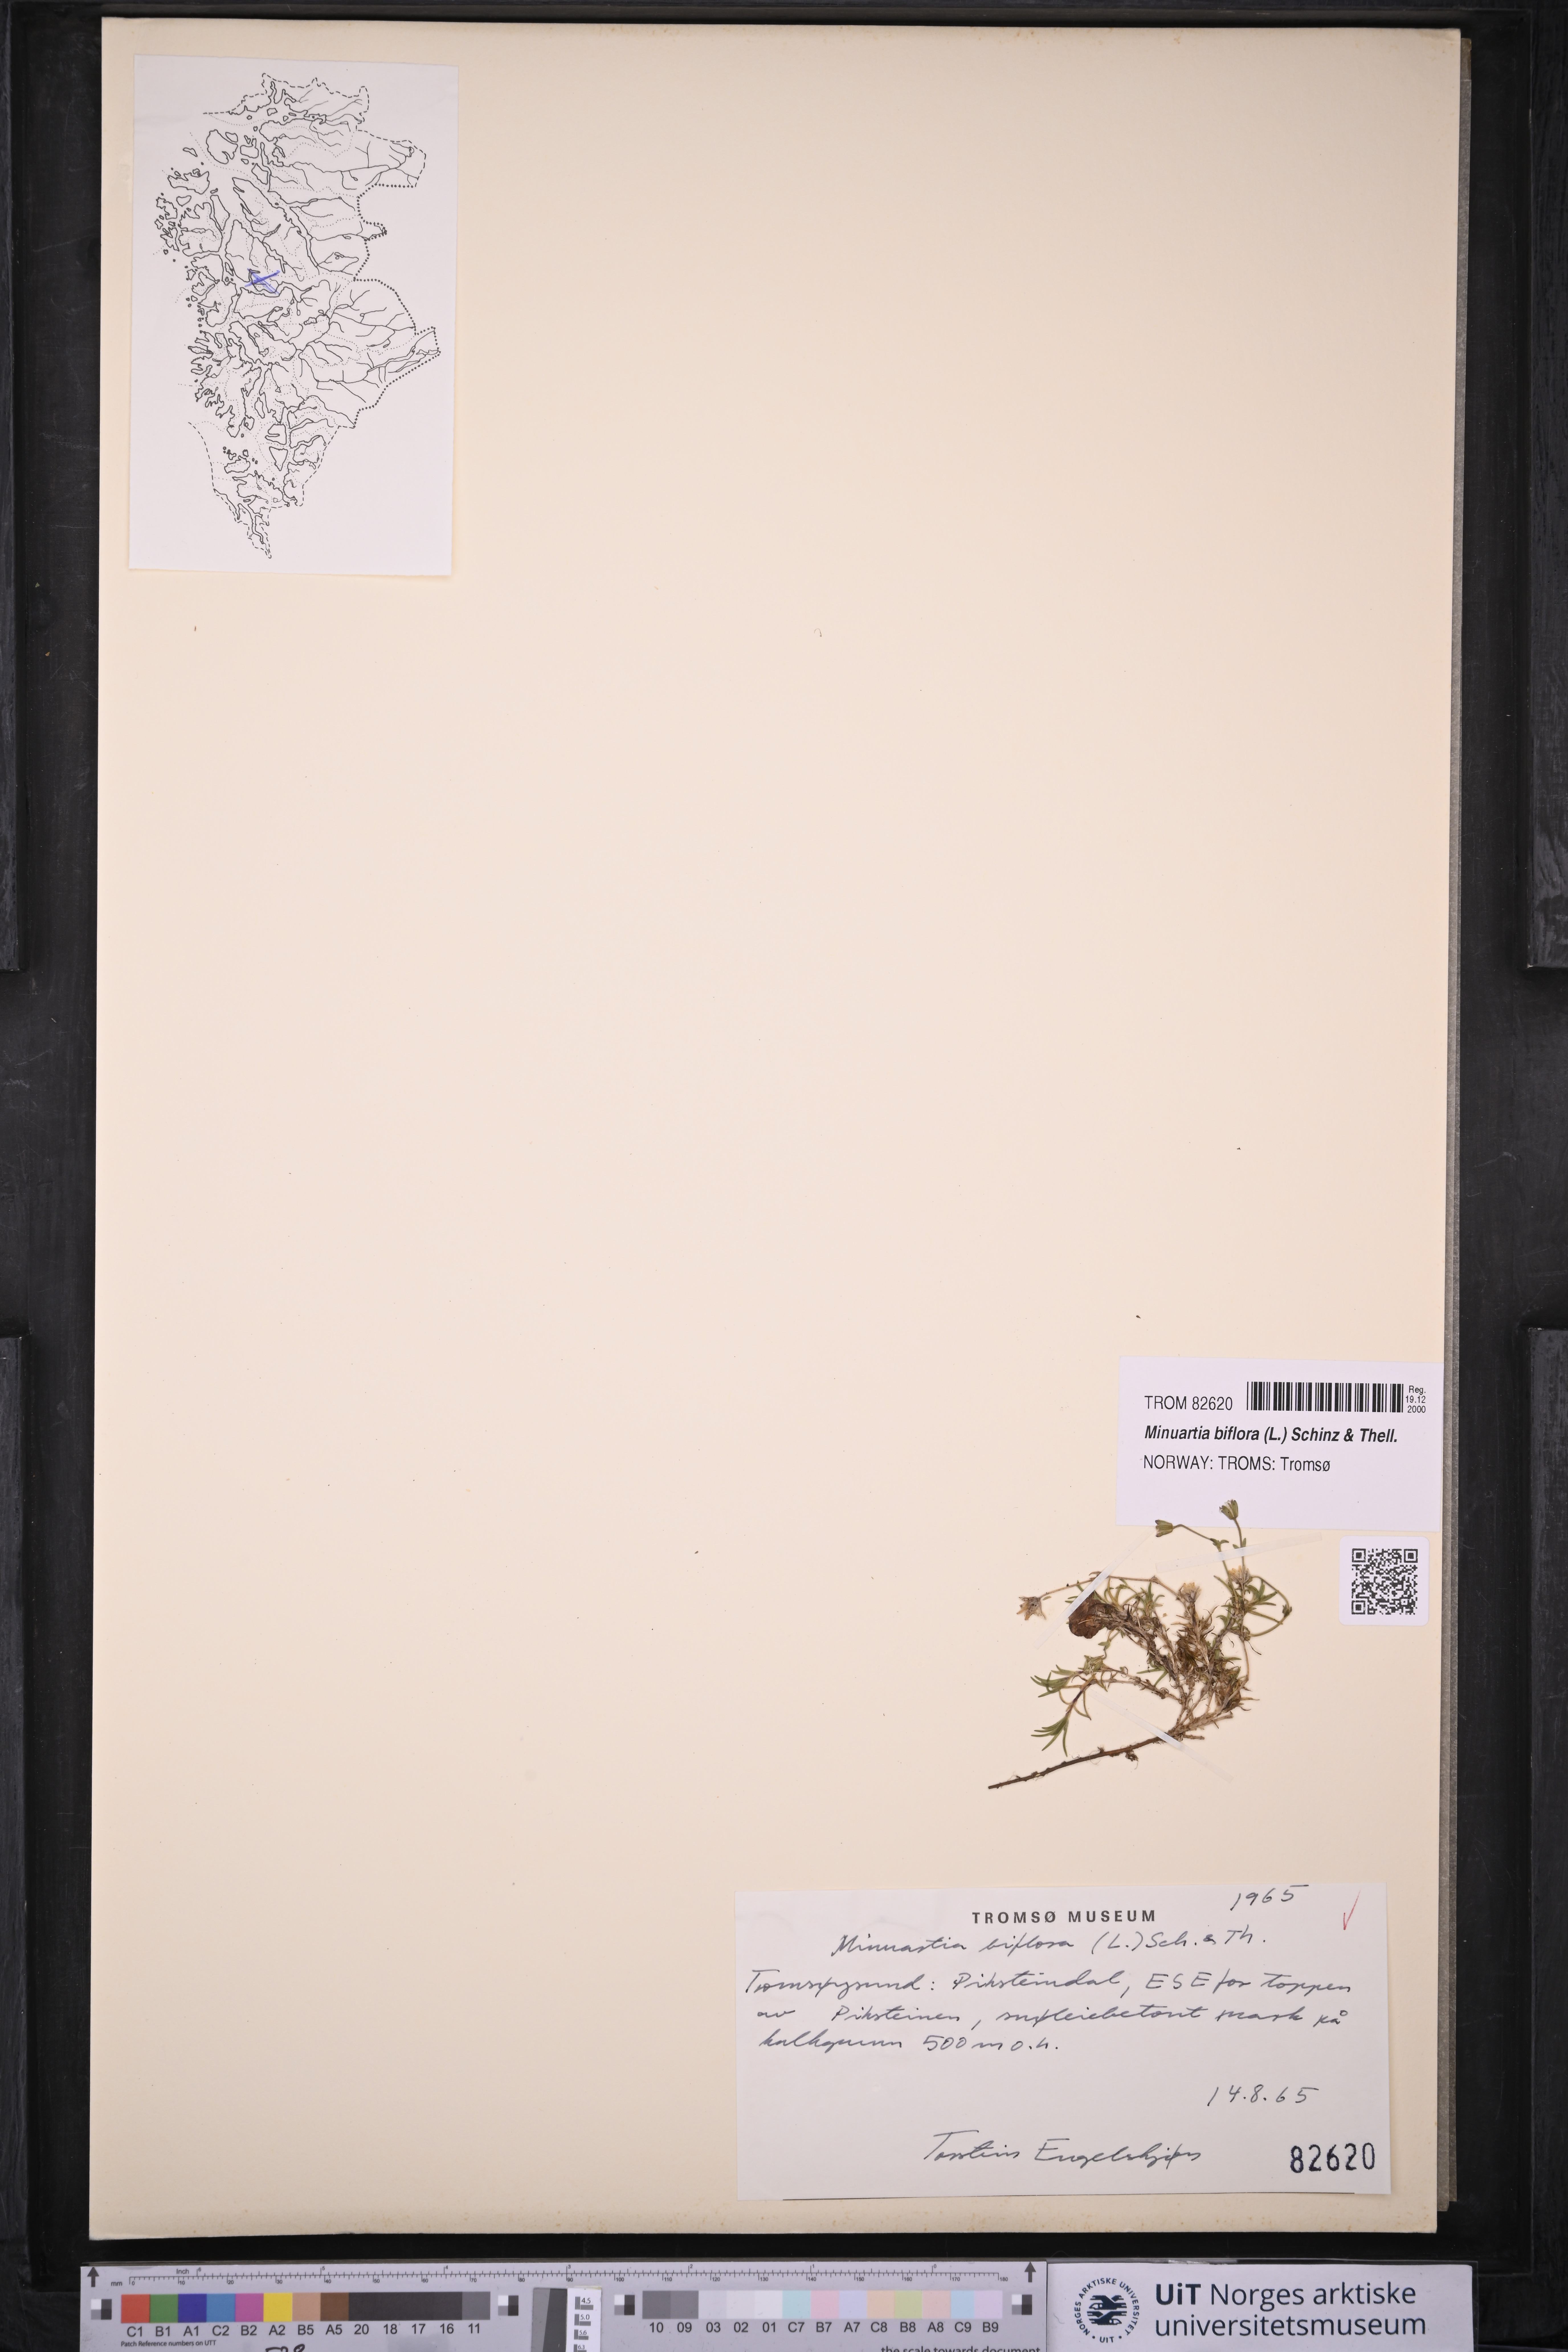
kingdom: Plantae
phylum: Tracheophyta
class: Magnoliopsida
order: Caryophyllales
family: Caryophyllaceae
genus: Cherleria
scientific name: Cherleria biflora
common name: Mountain sandwort
